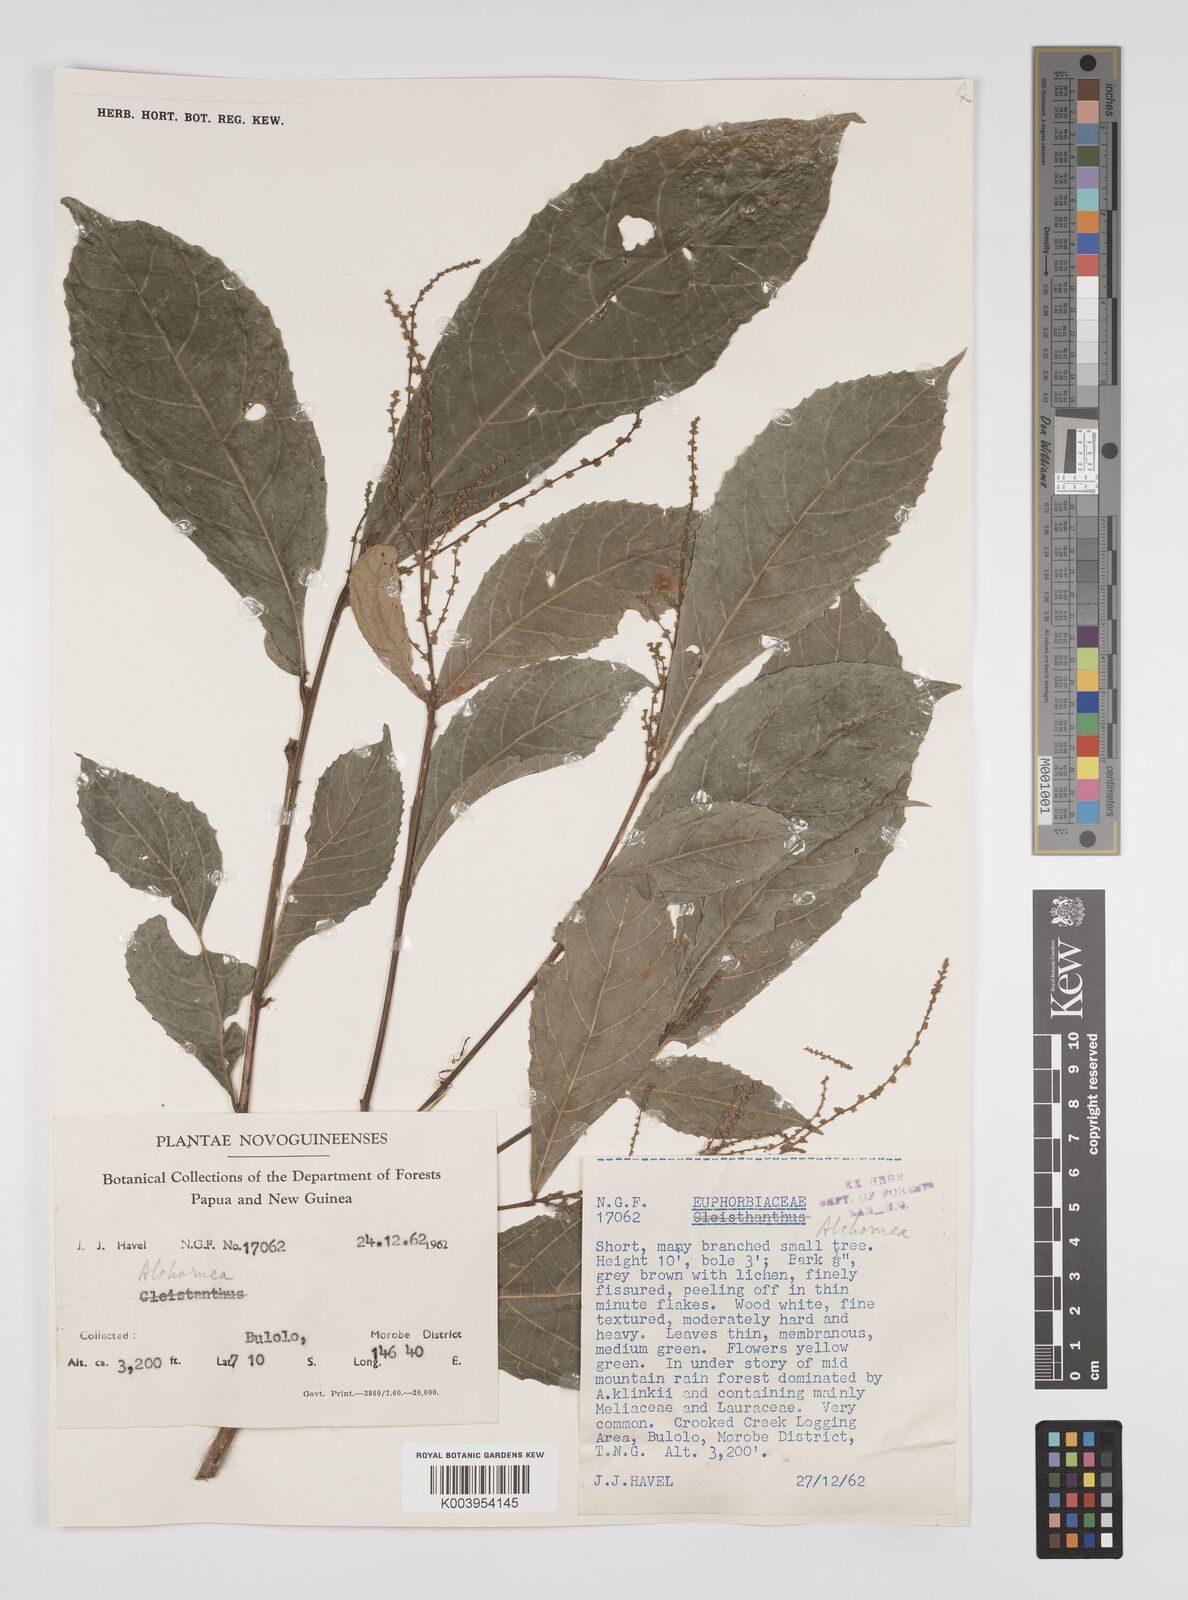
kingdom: Plantae
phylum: Tracheophyta
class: Magnoliopsida
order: Malpighiales
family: Euphorbiaceae
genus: Alchornea
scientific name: Alchornea rugosa
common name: Alchorntree
